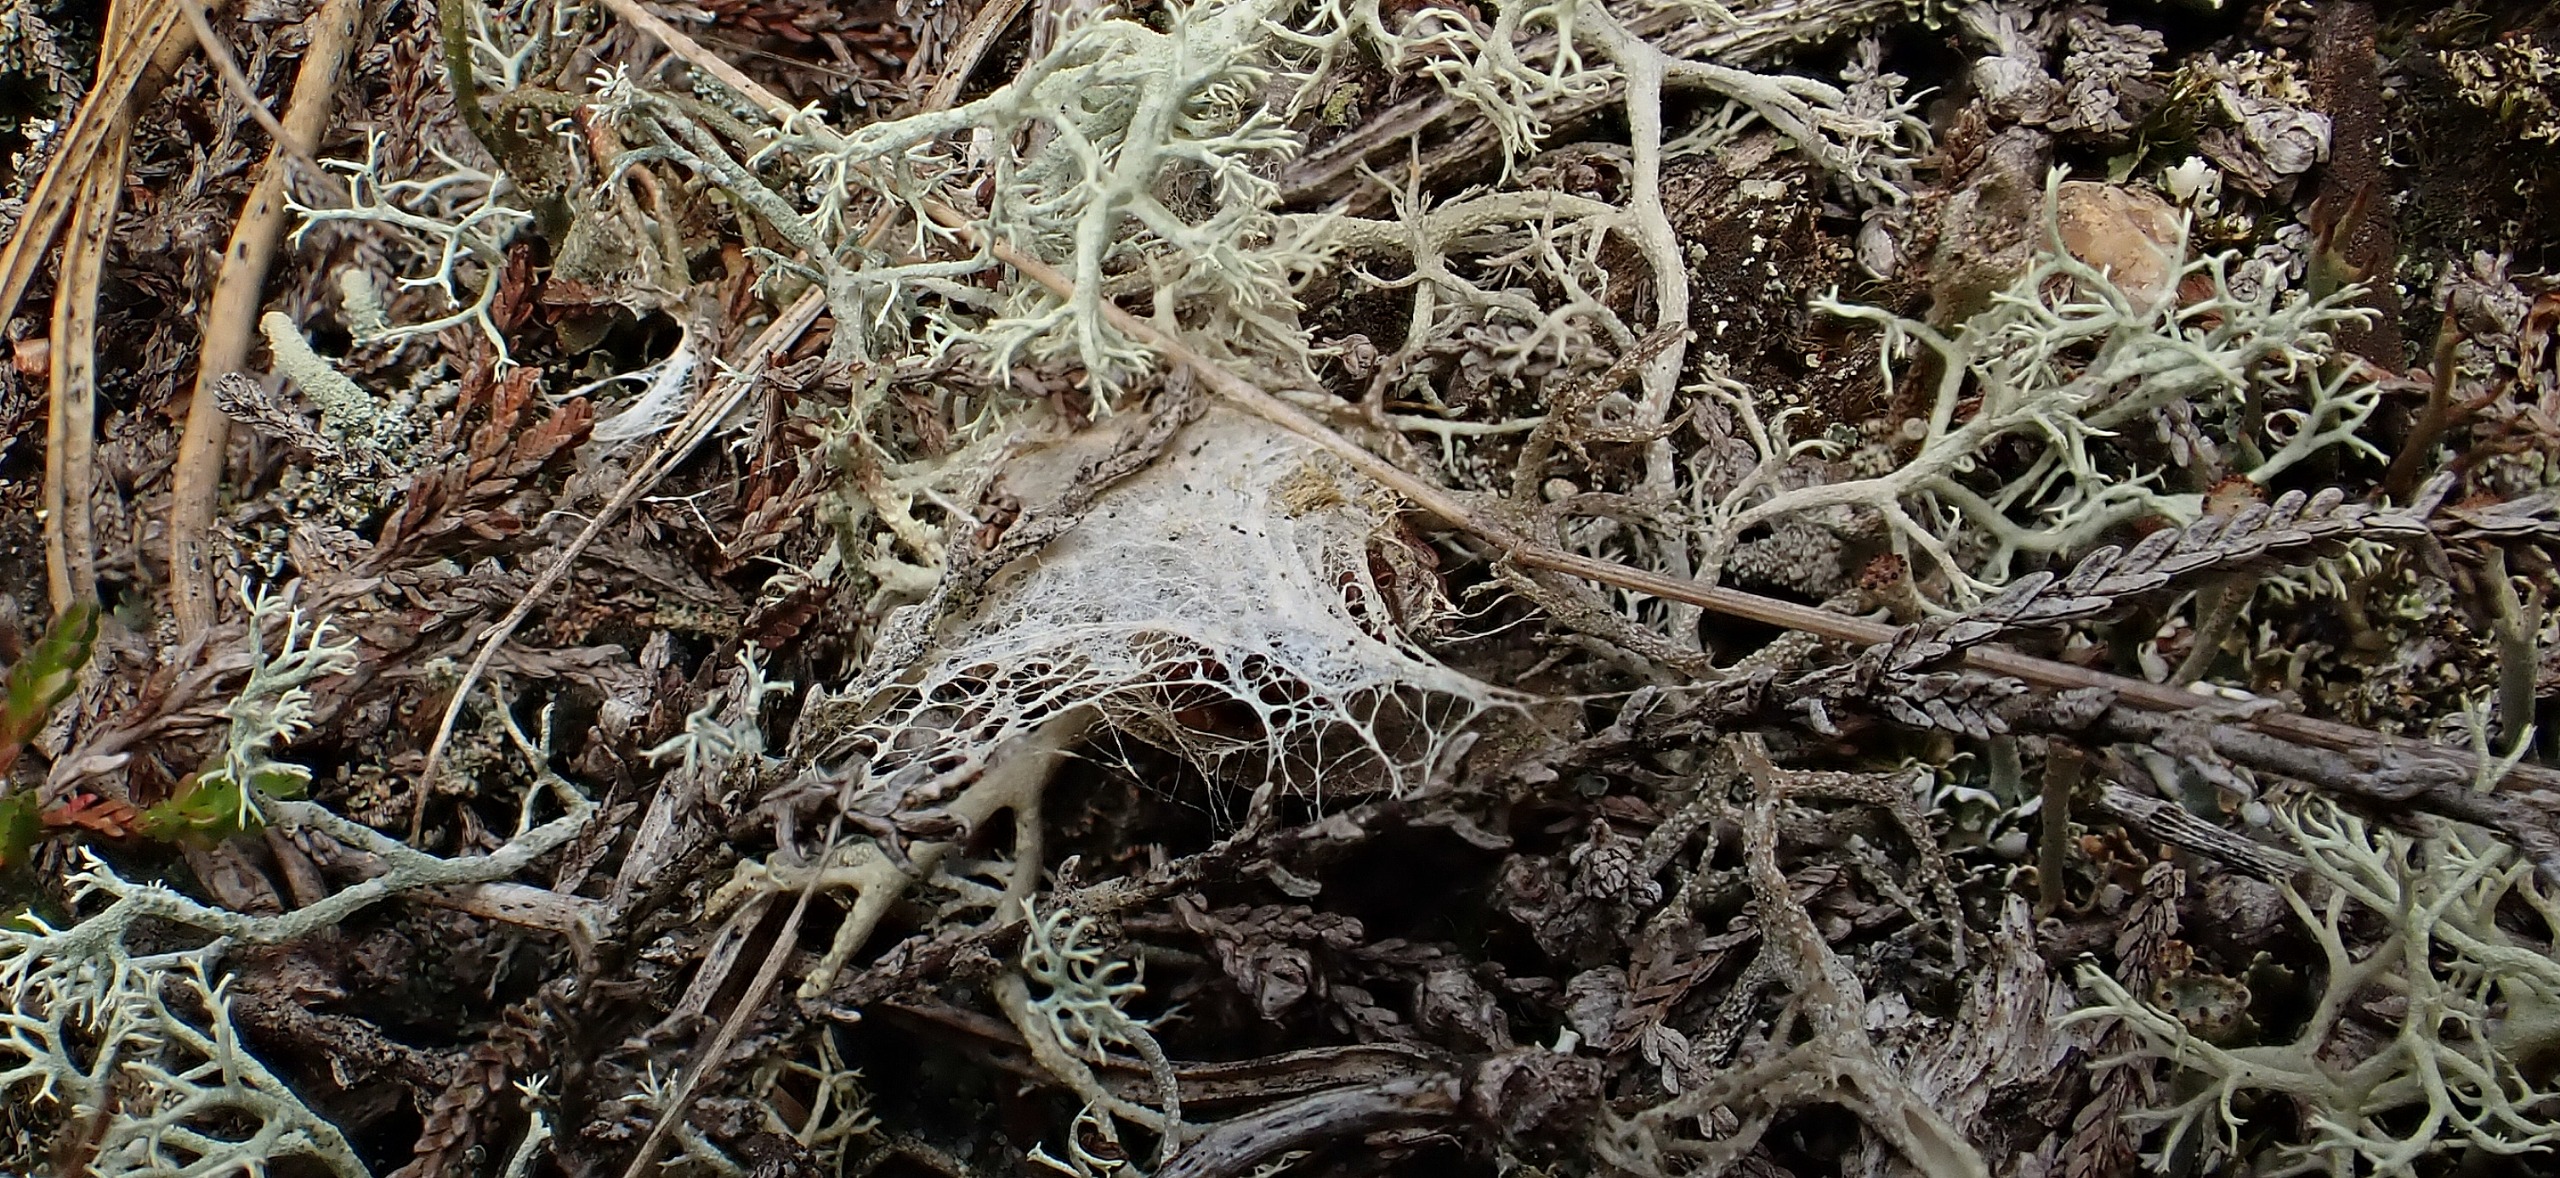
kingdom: Animalia
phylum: Arthropoda
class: Arachnida
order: Araneae
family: Eresidae
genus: Eresus
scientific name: Eresus sandaliatus
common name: Mariehøneedderkop
